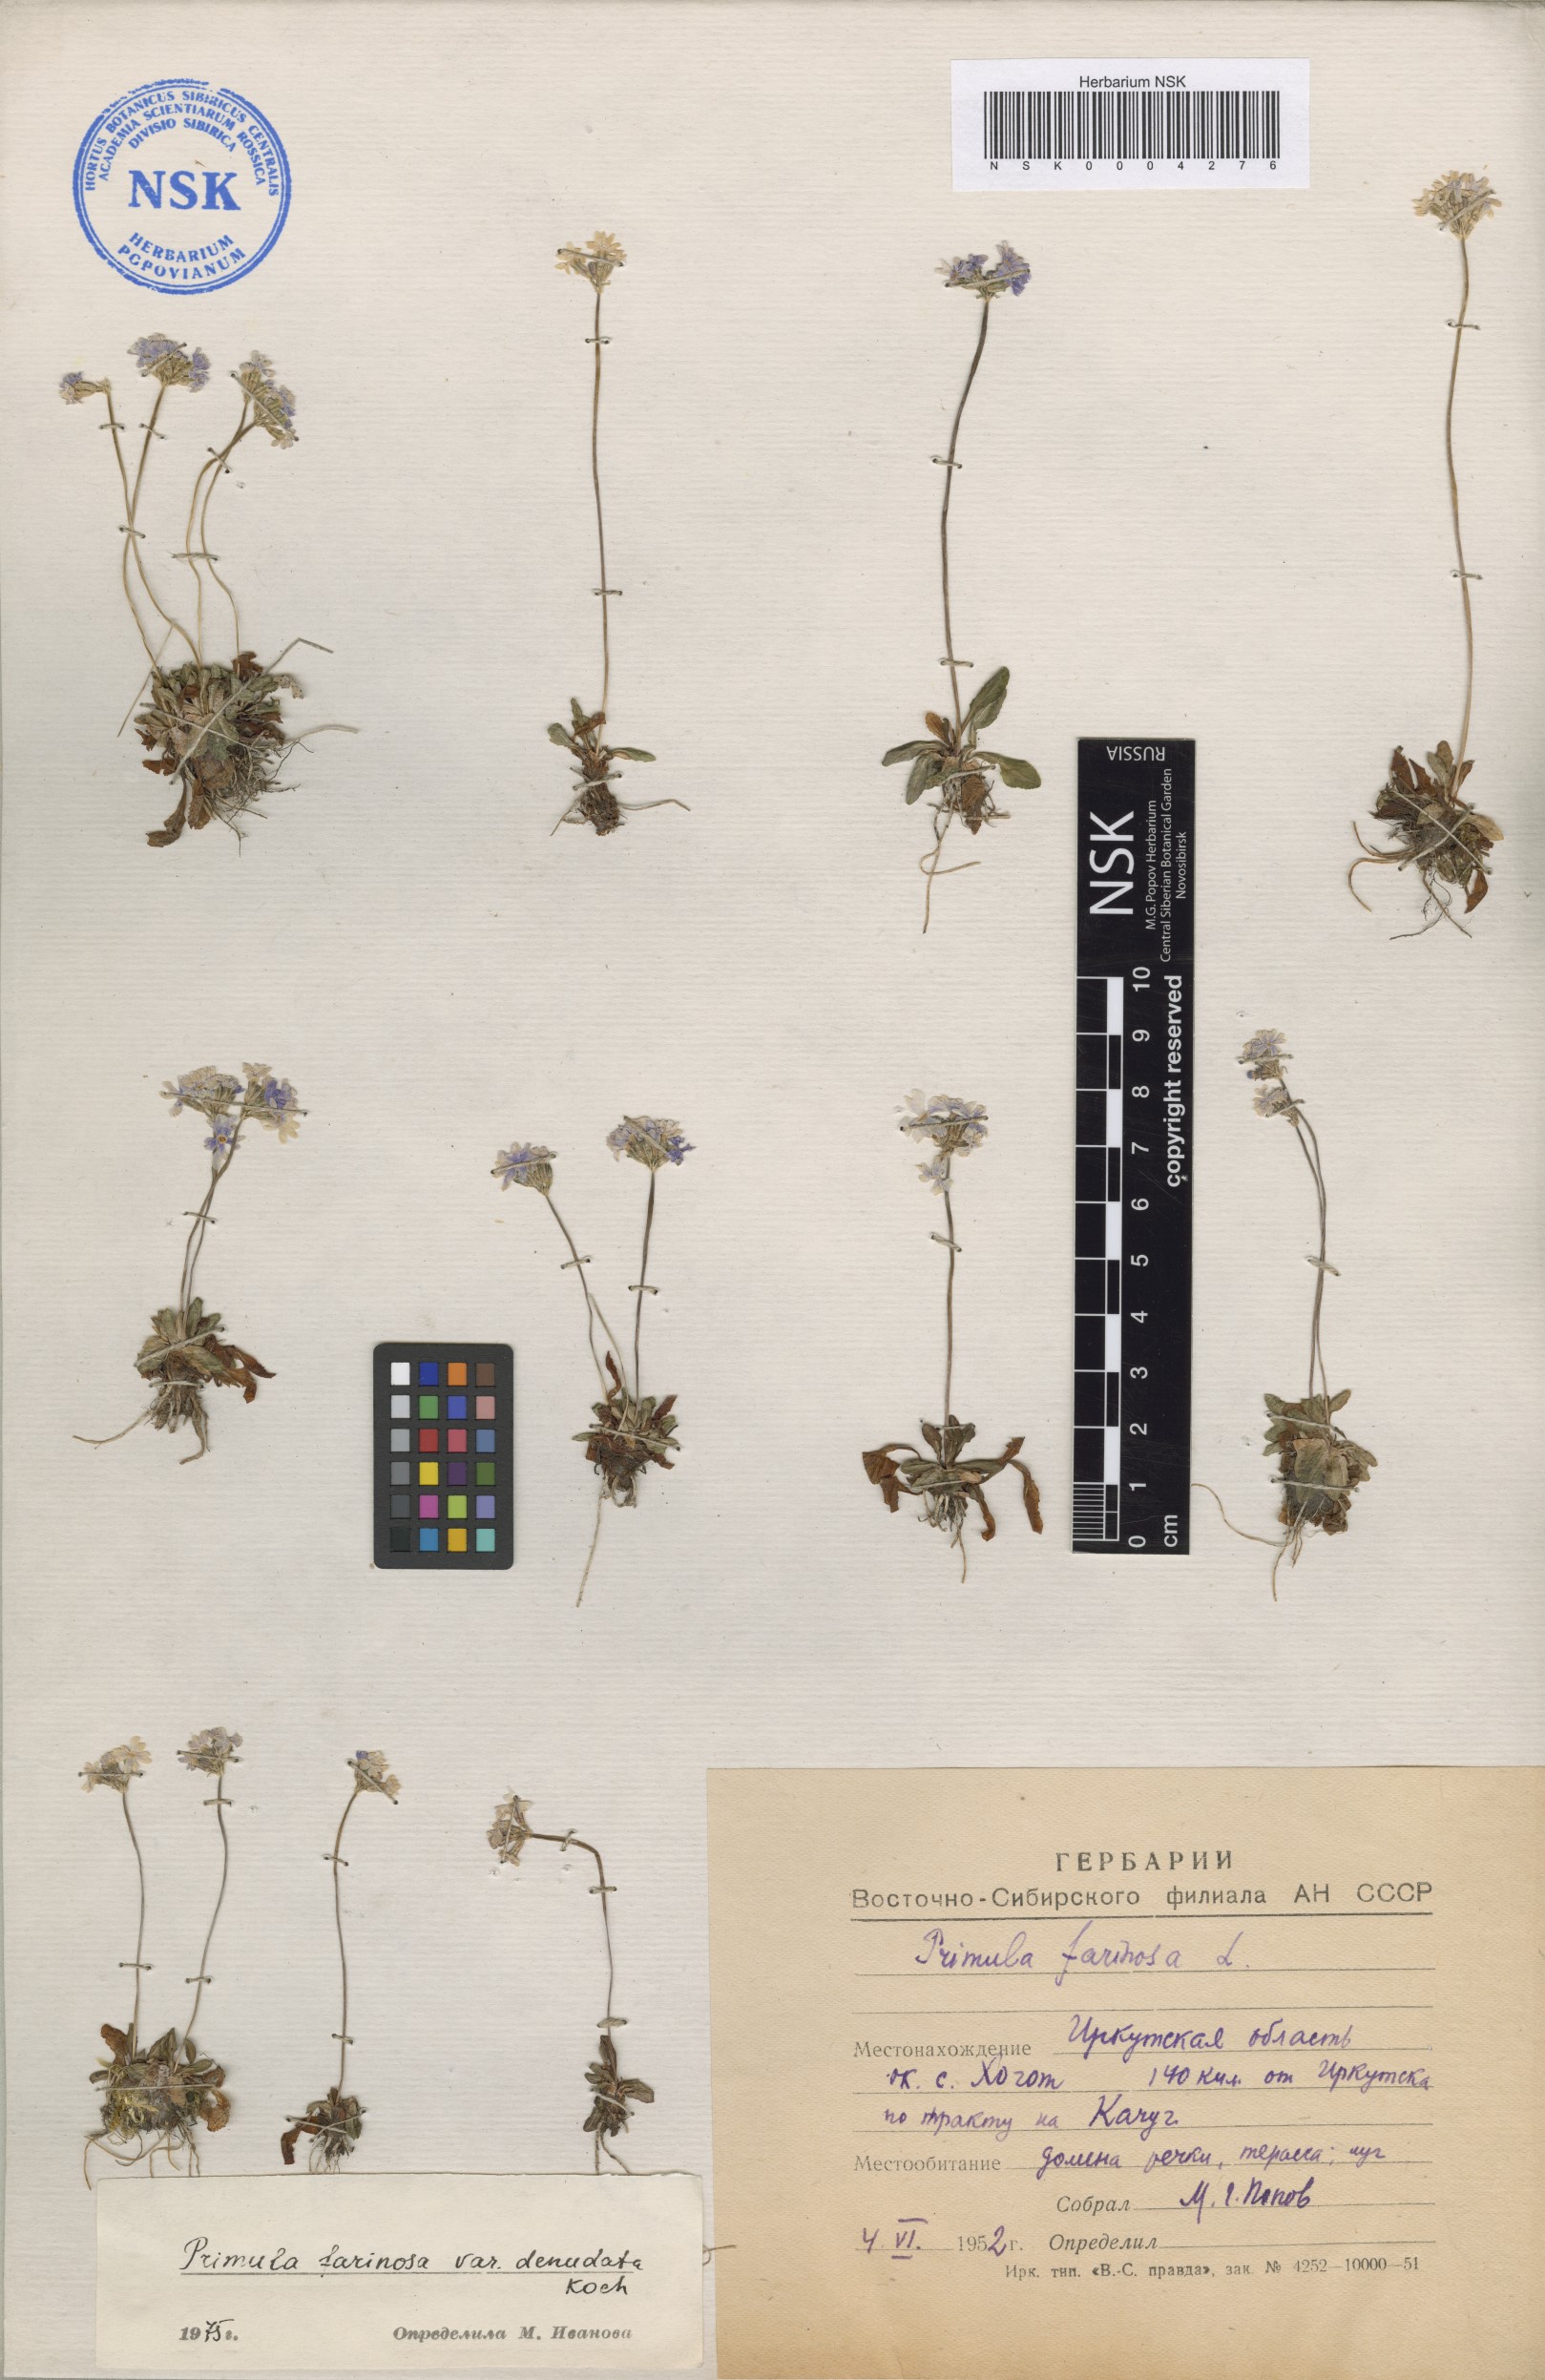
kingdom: Plantae
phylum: Tracheophyta
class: Magnoliopsida
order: Ericales
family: Primulaceae
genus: Primula
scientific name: Primula serrata
